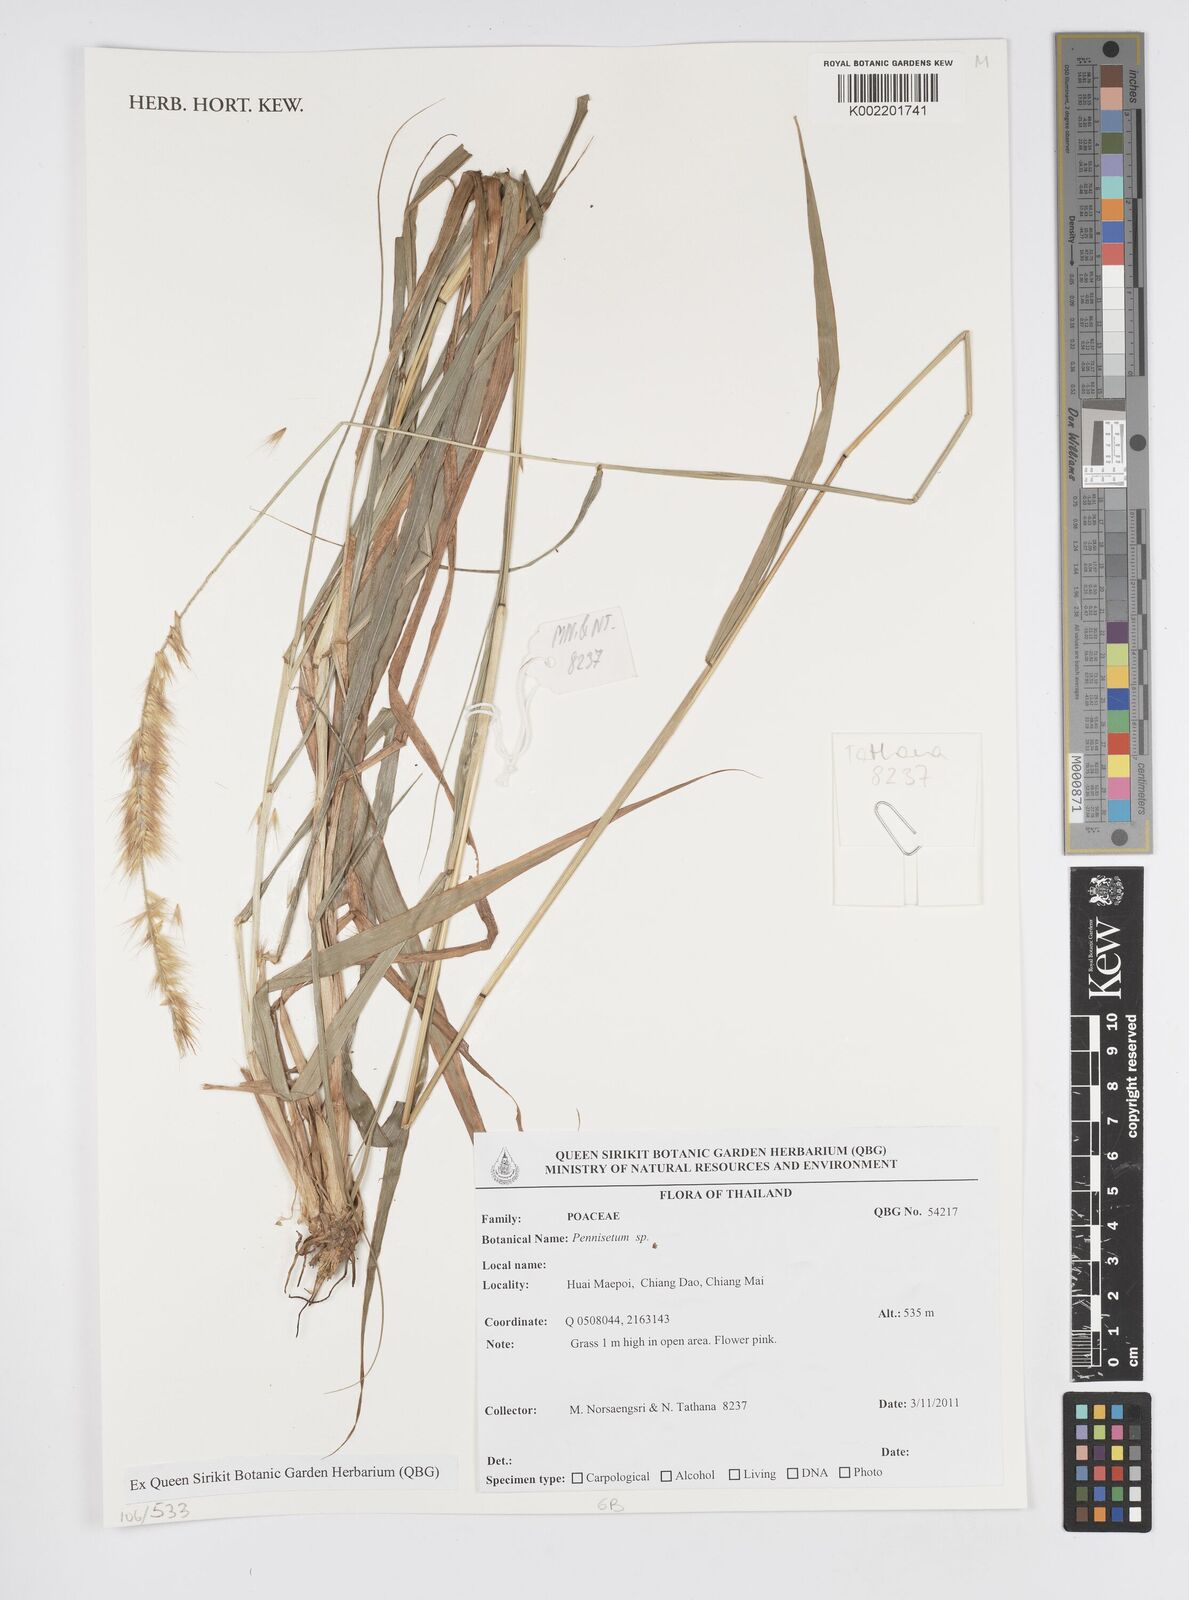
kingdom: Plantae
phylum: Tracheophyta
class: Liliopsida
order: Poales
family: Poaceae
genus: Cenchrus
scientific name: Cenchrus Pennisetum spec
